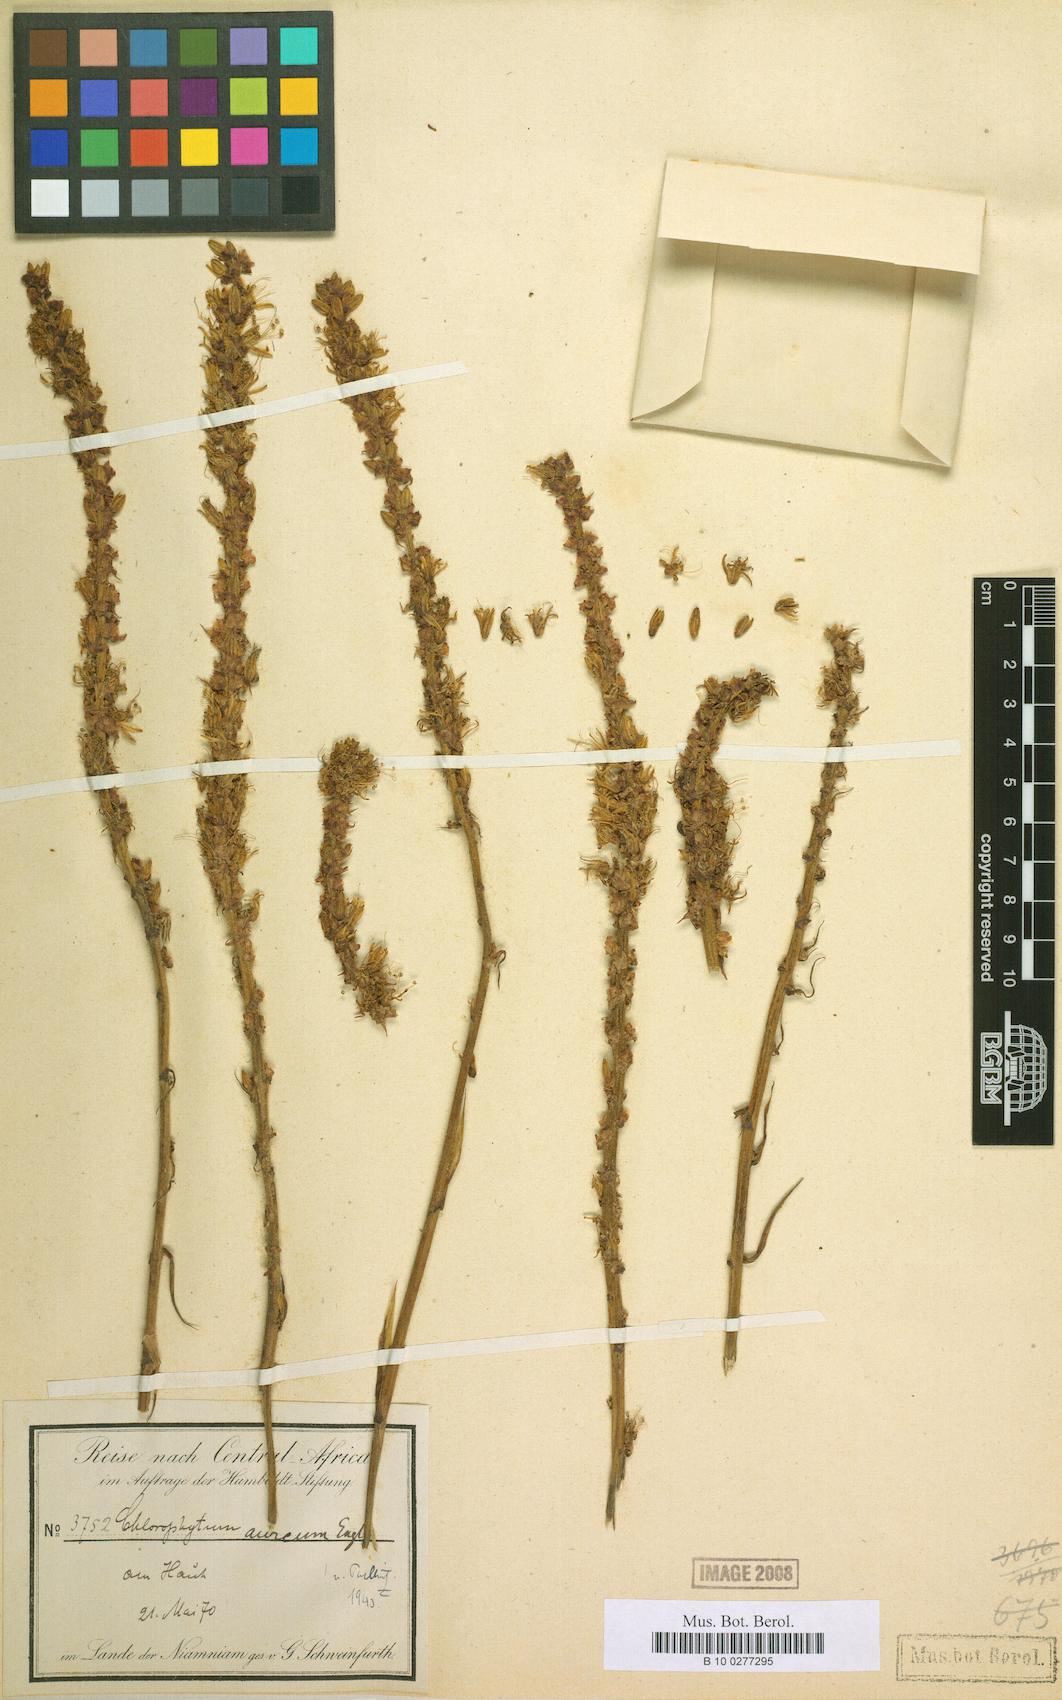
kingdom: Plantae
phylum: Tracheophyta
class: Liliopsida
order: Asparagales
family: Asparagaceae
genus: Chlorophytum
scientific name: Chlorophytum longifolium
